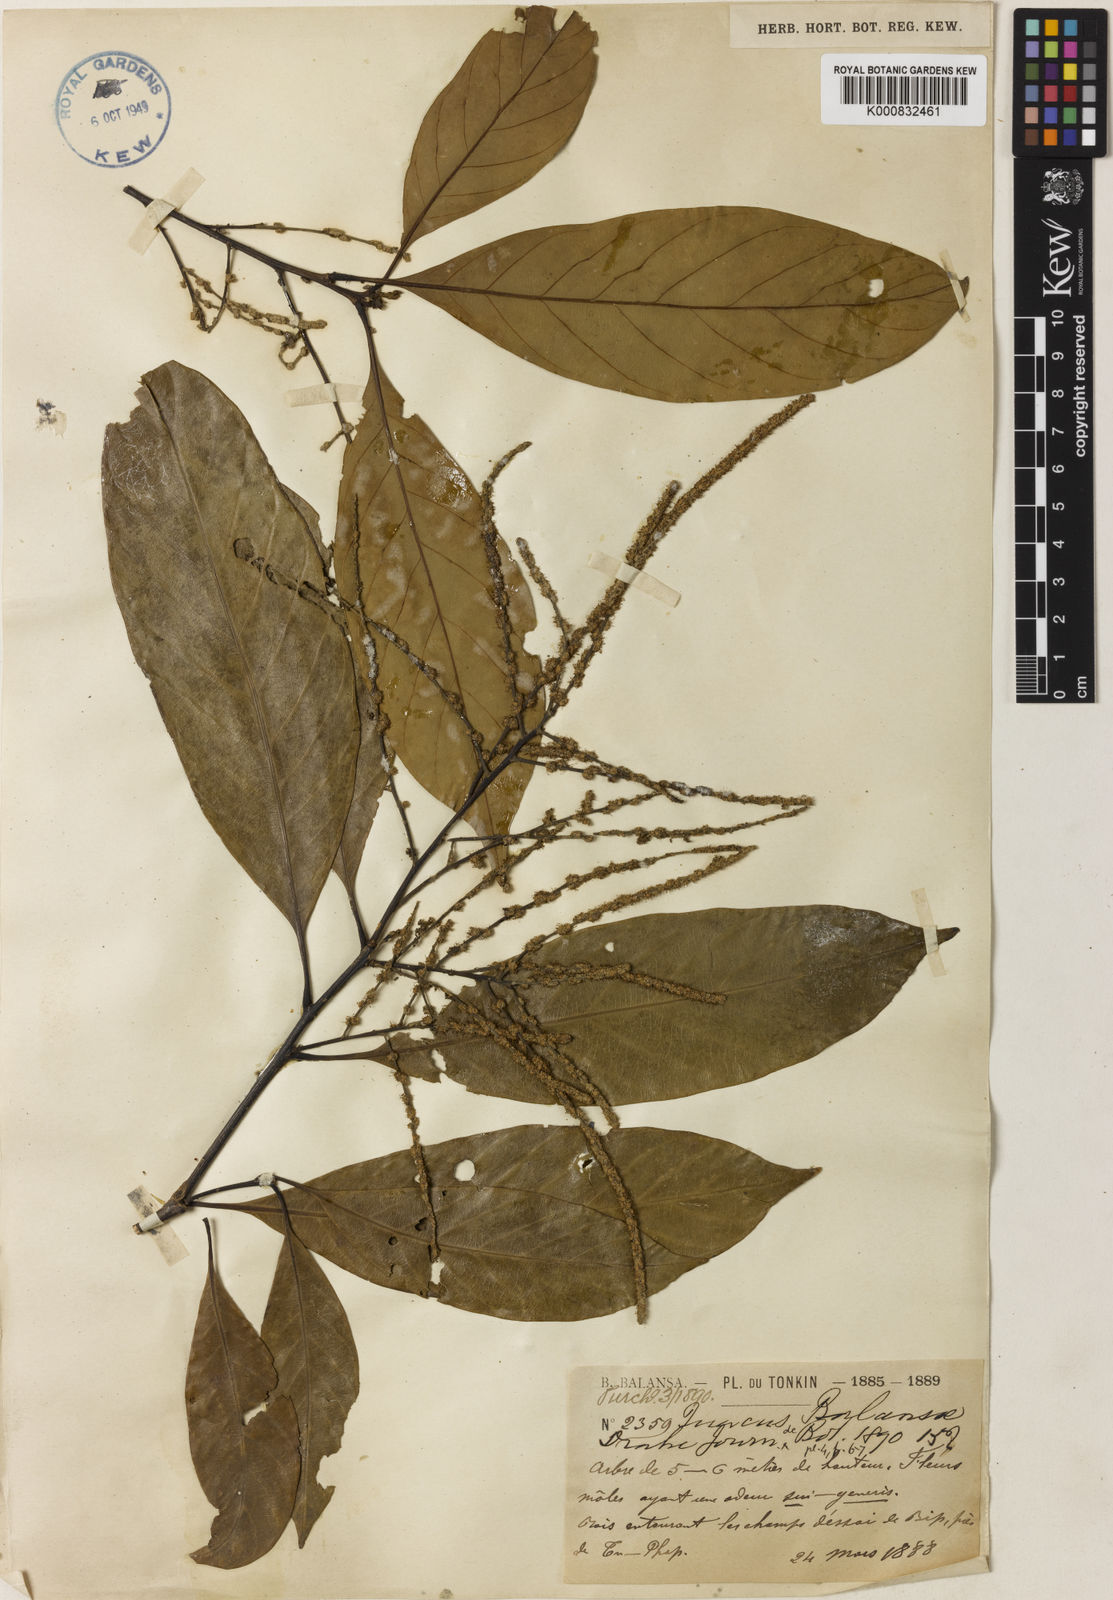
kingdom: Plantae
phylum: Tracheophyta
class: Magnoliopsida
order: Fagales
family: Fagaceae
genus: Lithocarpus
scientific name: Lithocarpus tephrocarpus
